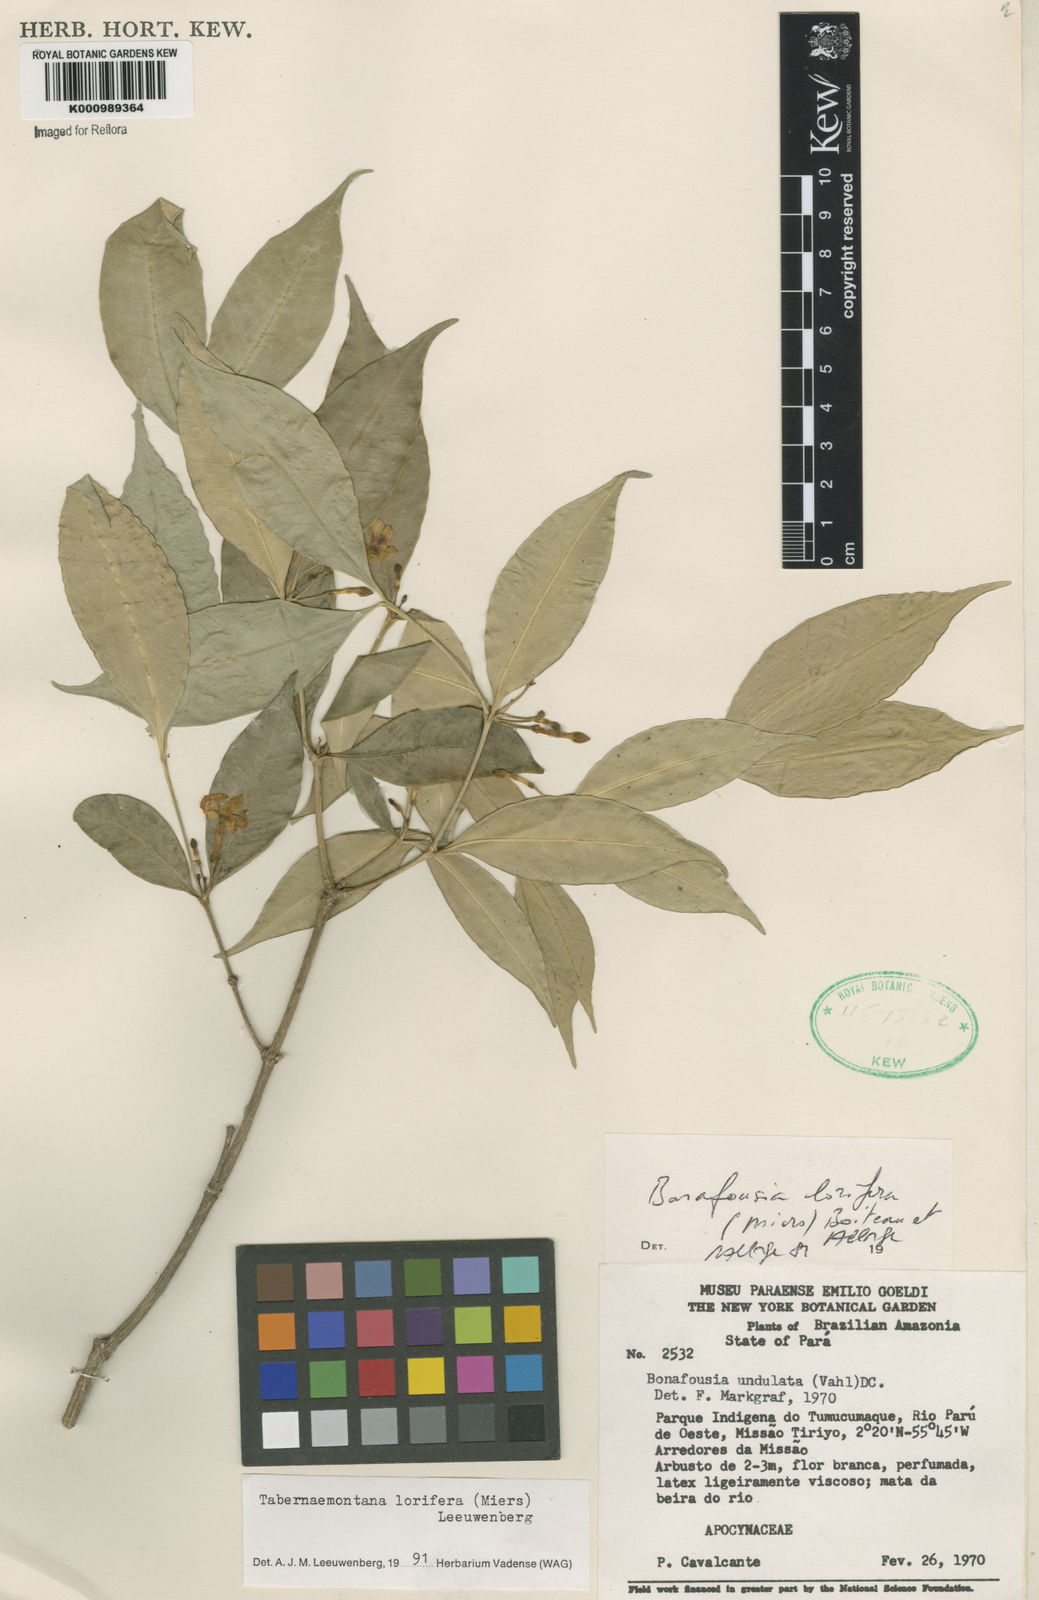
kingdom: Plantae
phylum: Tracheophyta
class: Magnoliopsida
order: Gentianales
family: Apocynaceae
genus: Tabernaemontana
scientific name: Tabernaemontana lorifera
